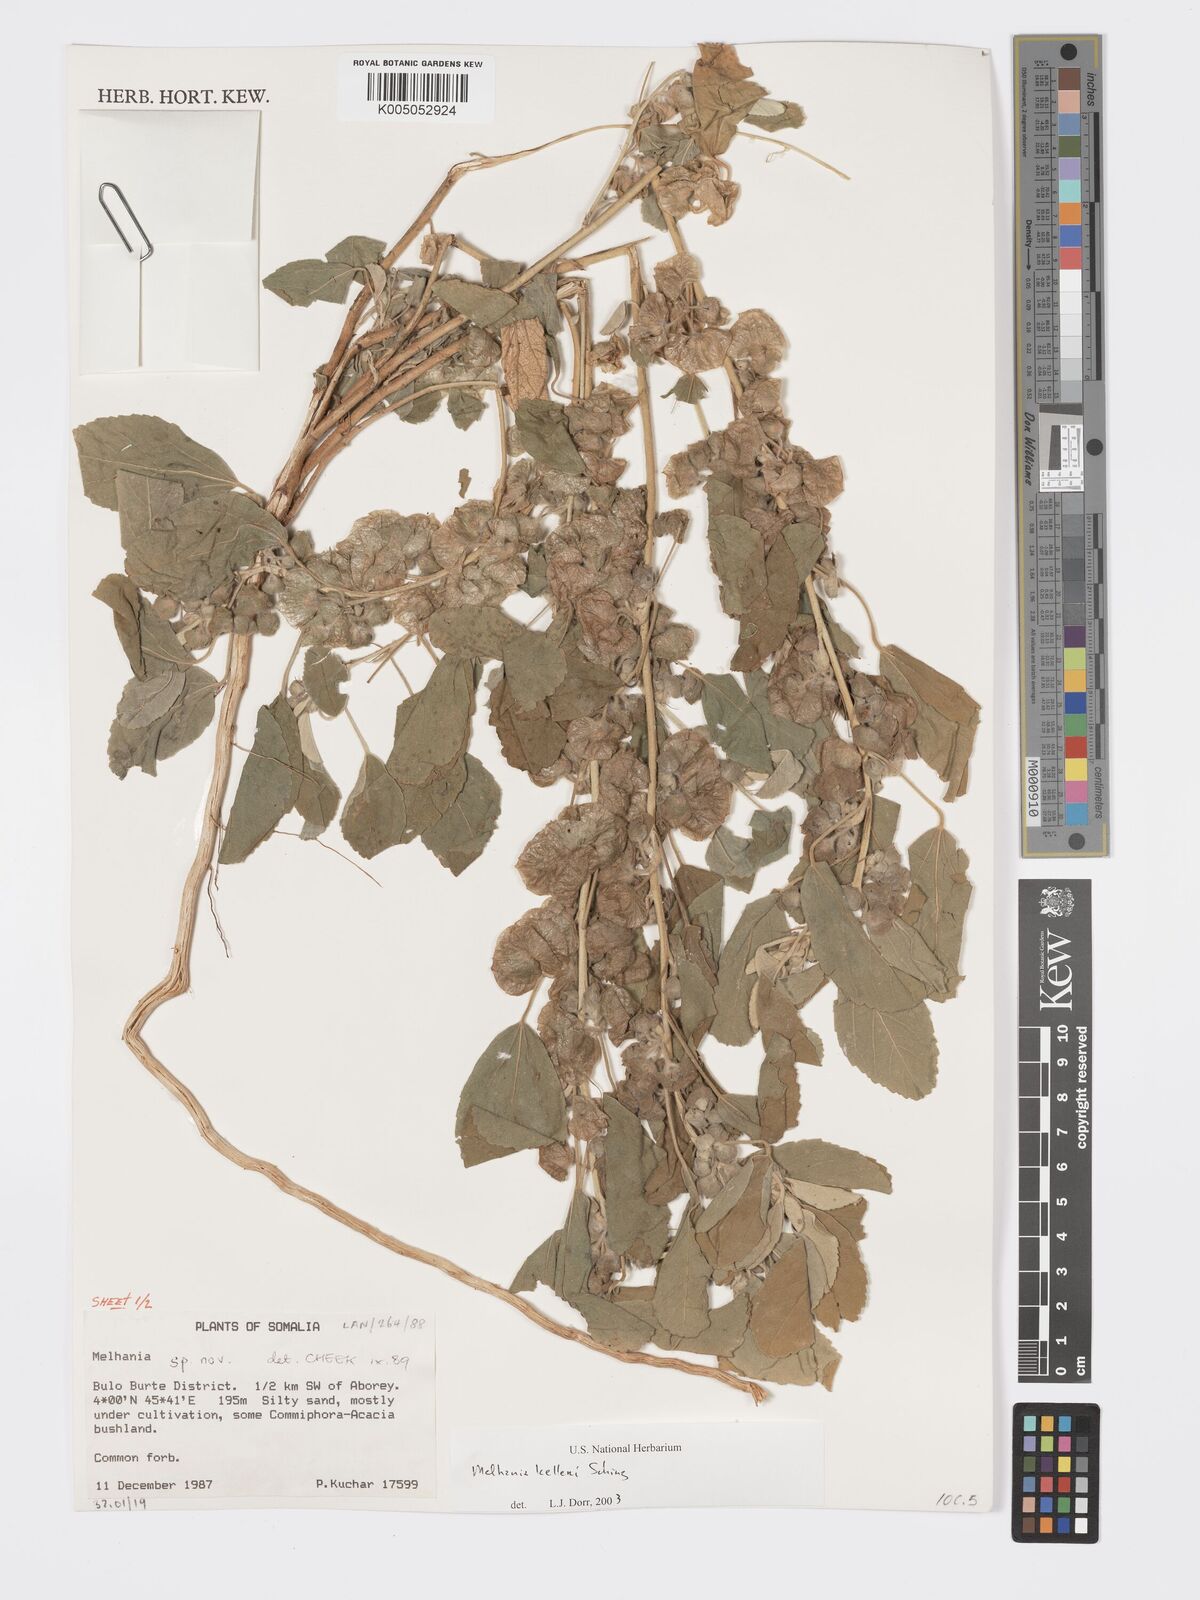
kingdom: Plantae
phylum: Tracheophyta
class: Magnoliopsida
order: Malvales
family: Malvaceae
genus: Melhania
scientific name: Melhania kelleri
